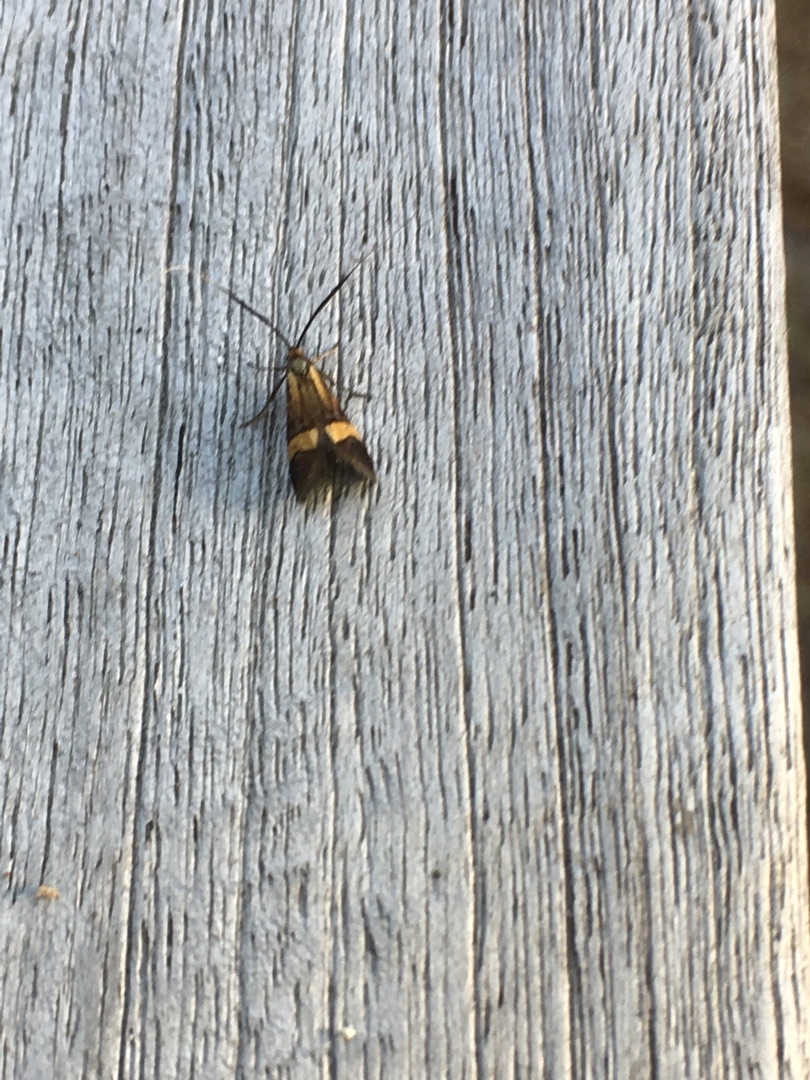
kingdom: Animalia
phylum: Arthropoda
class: Insecta
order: Lepidoptera
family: Adelidae
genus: Nemophora
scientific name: Nemophora degeerella
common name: Løvskovslanghornsmøl
